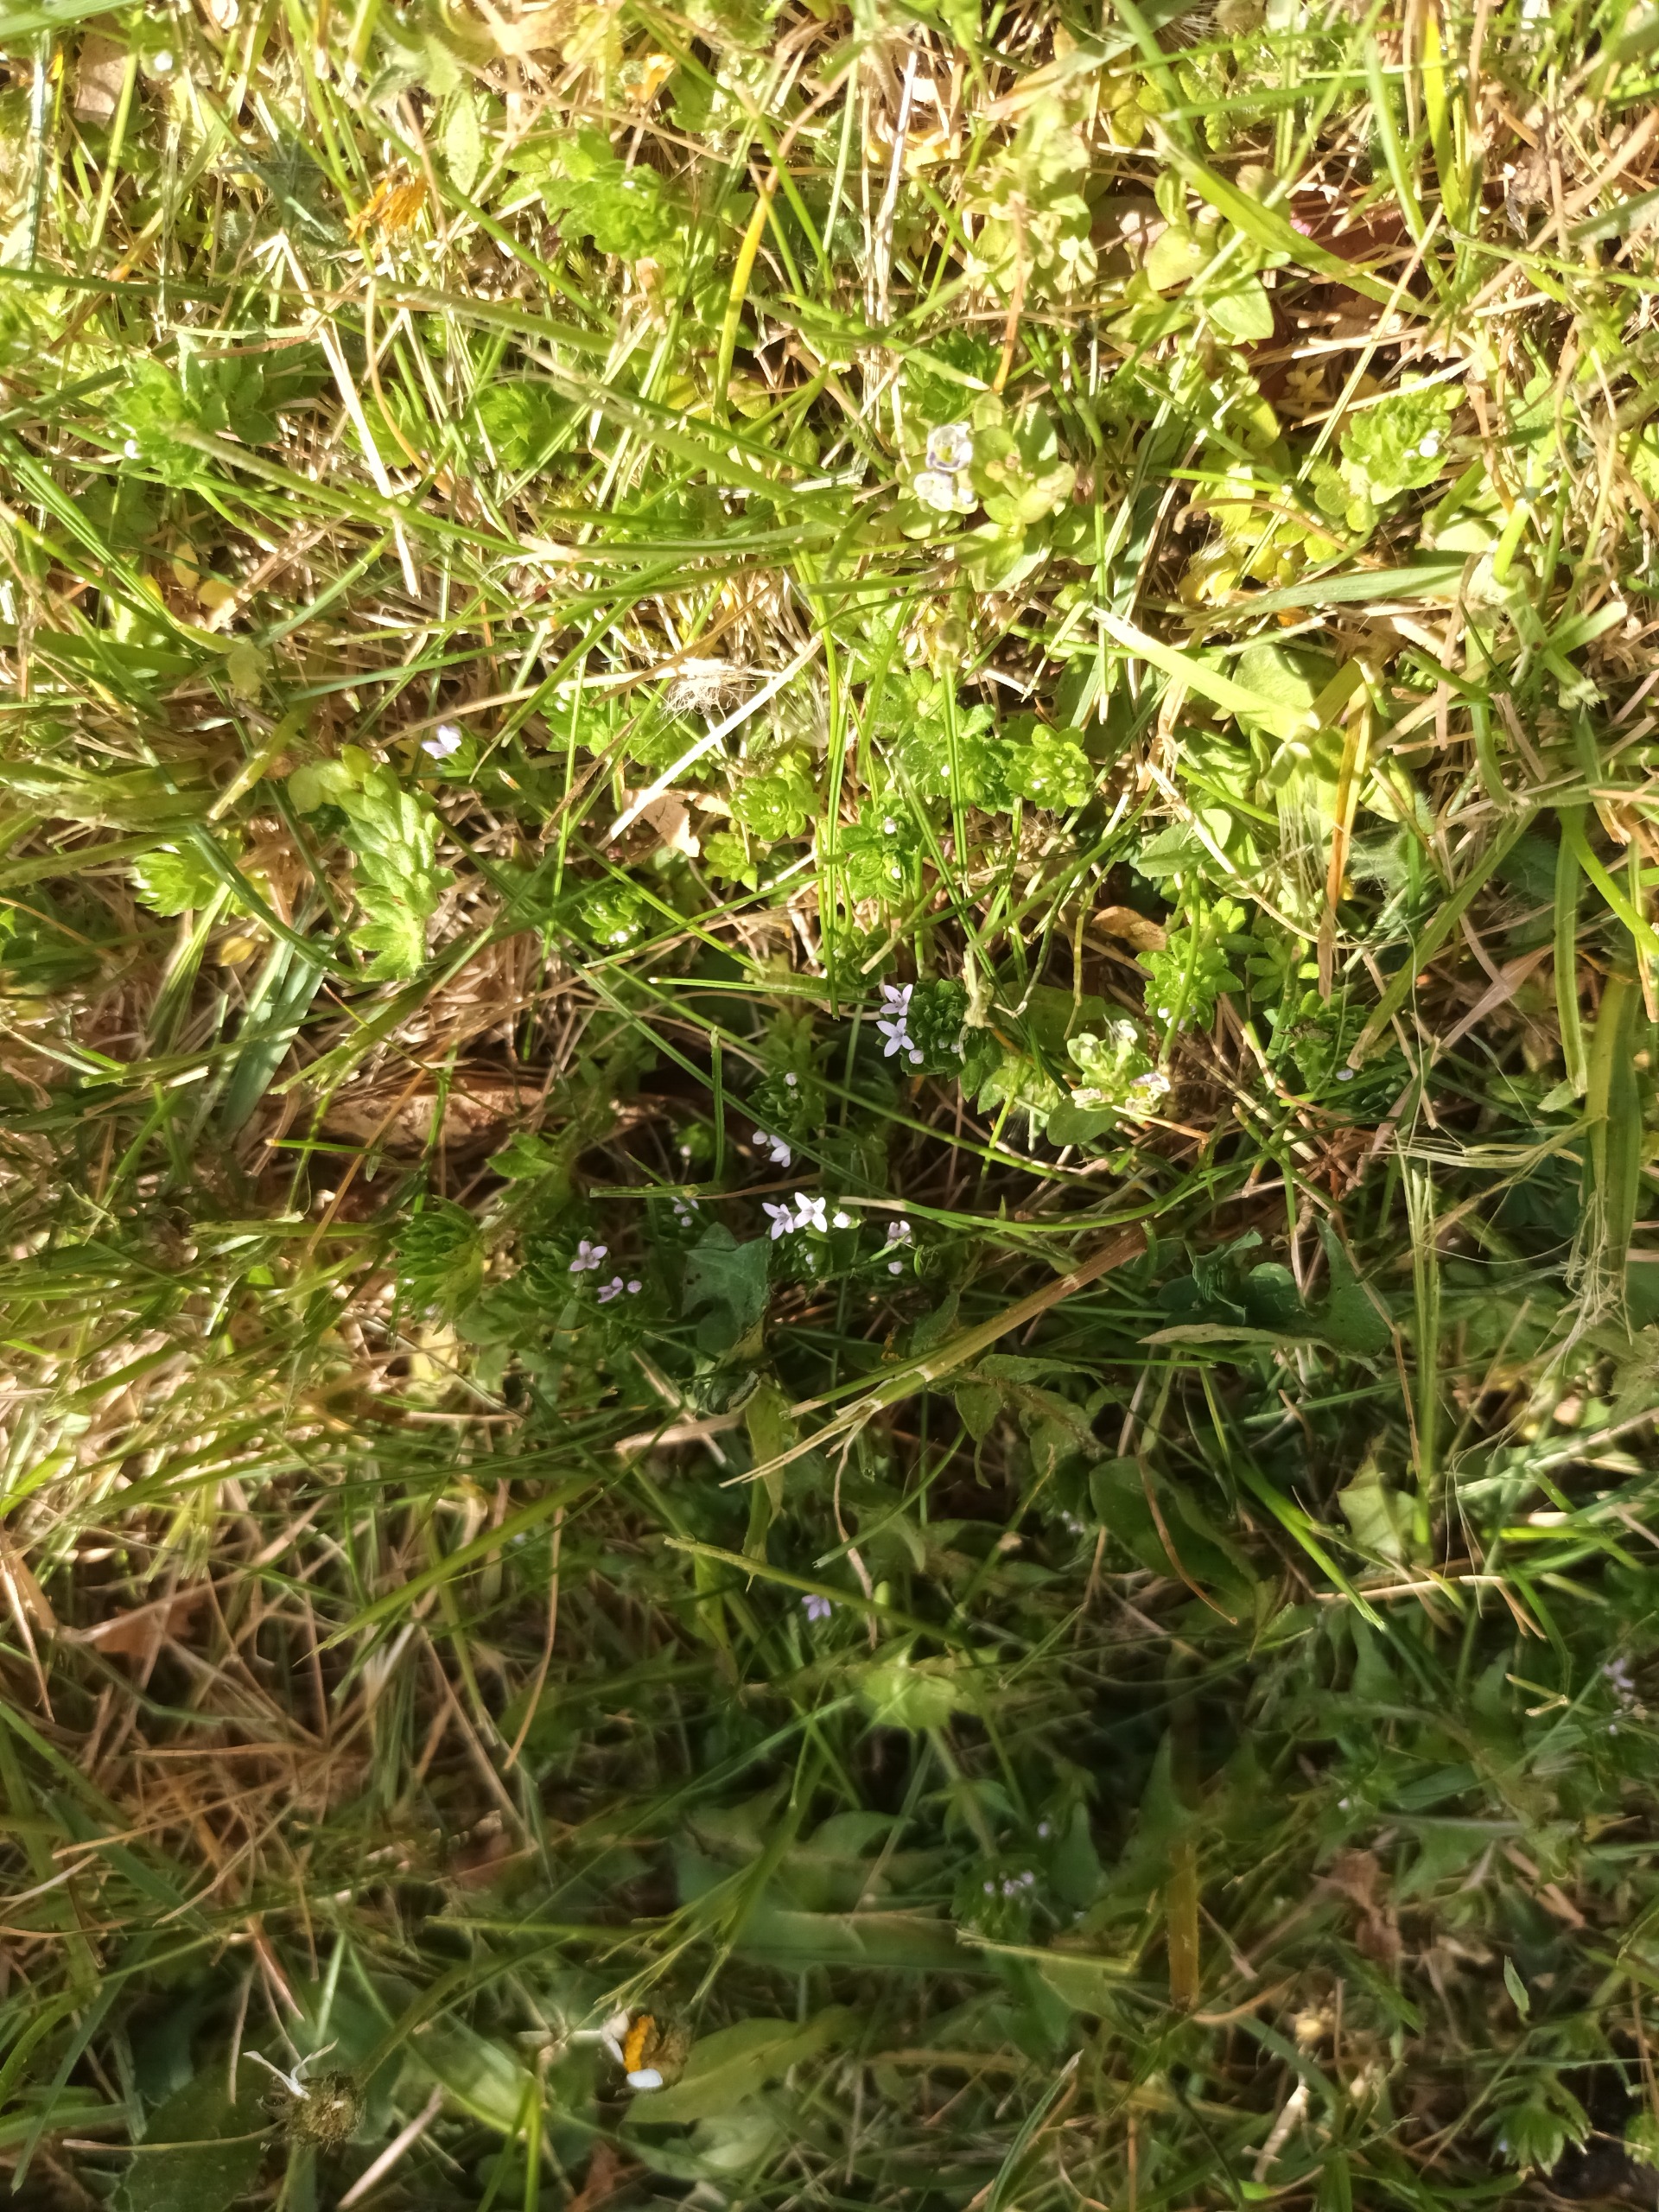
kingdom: Plantae
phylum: Tracheophyta
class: Magnoliopsida
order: Gentianales
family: Rubiaceae
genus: Sherardia
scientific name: Sherardia arvensis
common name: Blåstjerne
